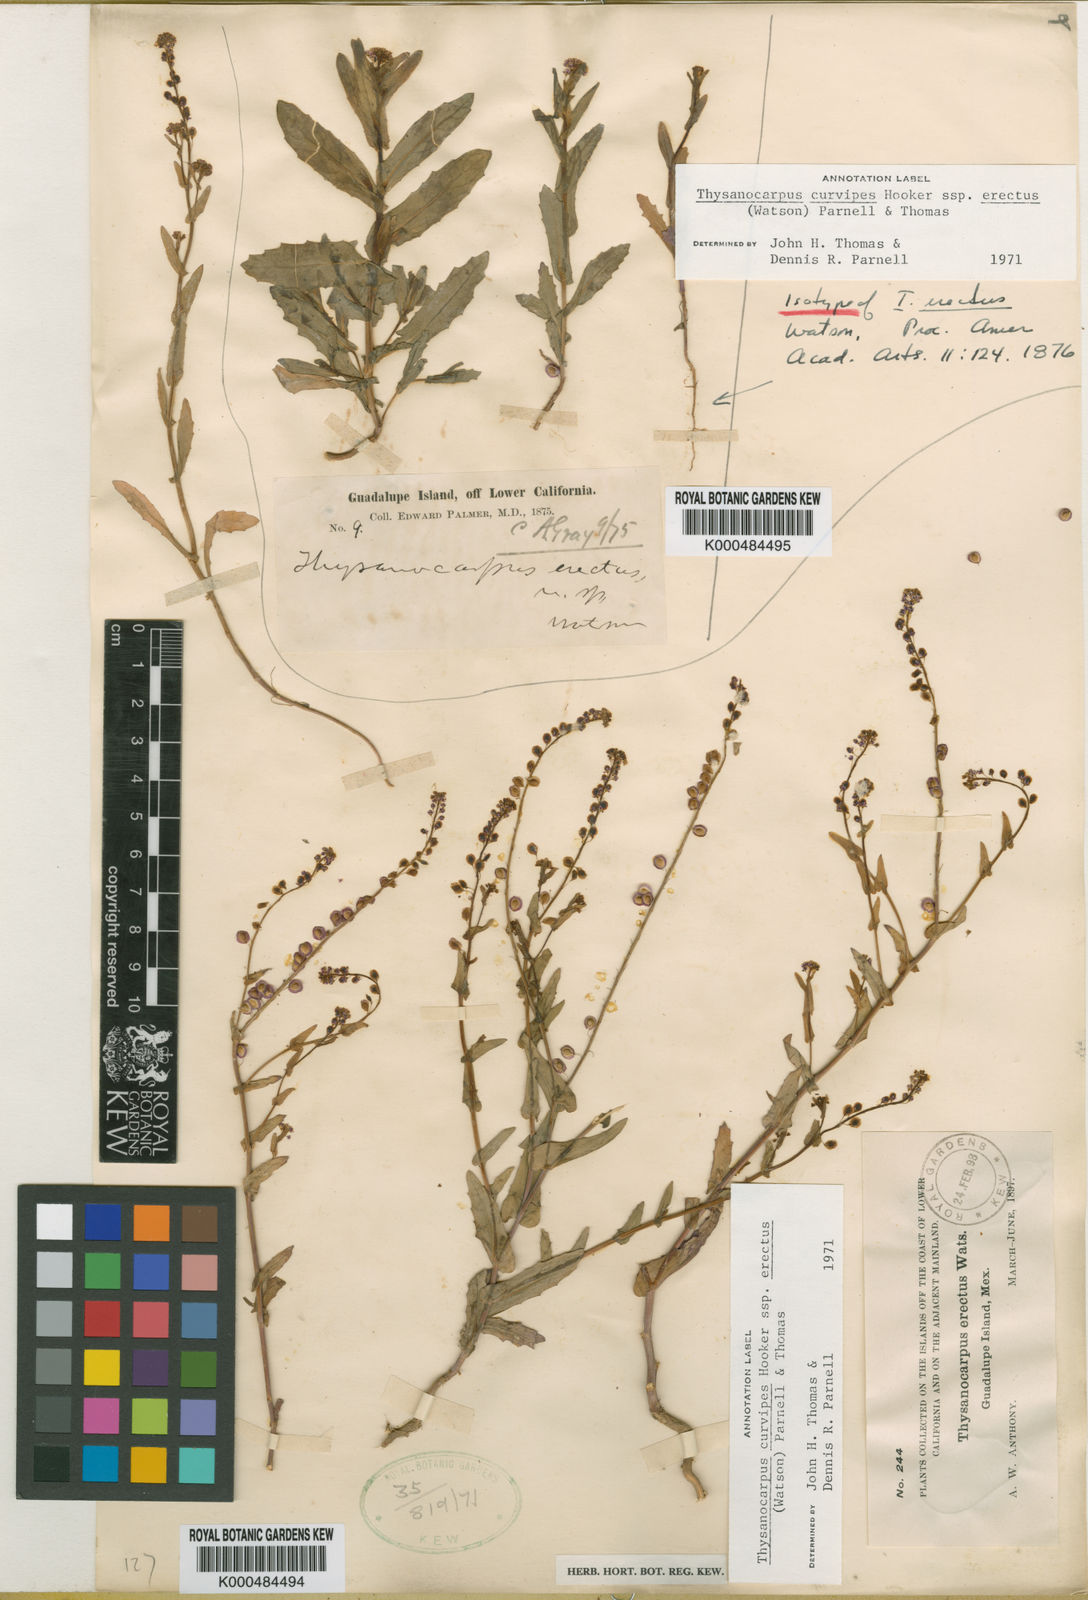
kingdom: Plantae
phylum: Tracheophyta
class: Magnoliopsida
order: Brassicales
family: Brassicaceae
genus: Thysanocarpus
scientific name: Thysanocarpus curvipes
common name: Sand fringepod
